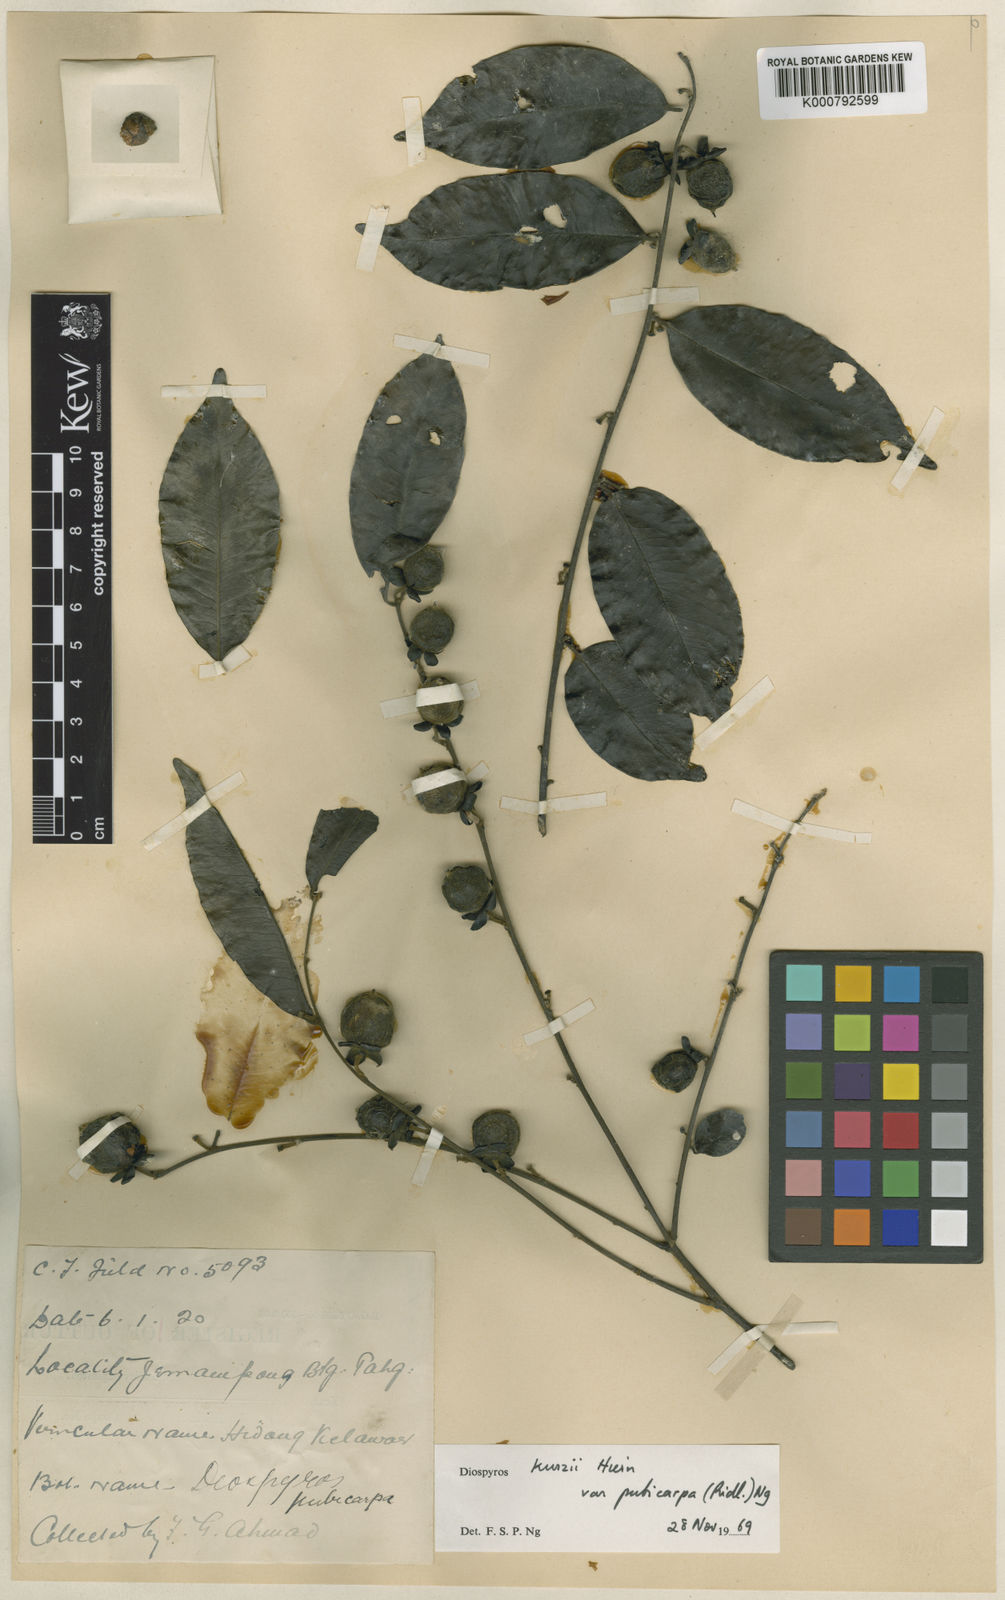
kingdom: Plantae
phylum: Tracheophyta
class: Magnoliopsida
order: Ericales
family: Ebenaceae
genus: Diospyros
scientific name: Diospyros kurzii
